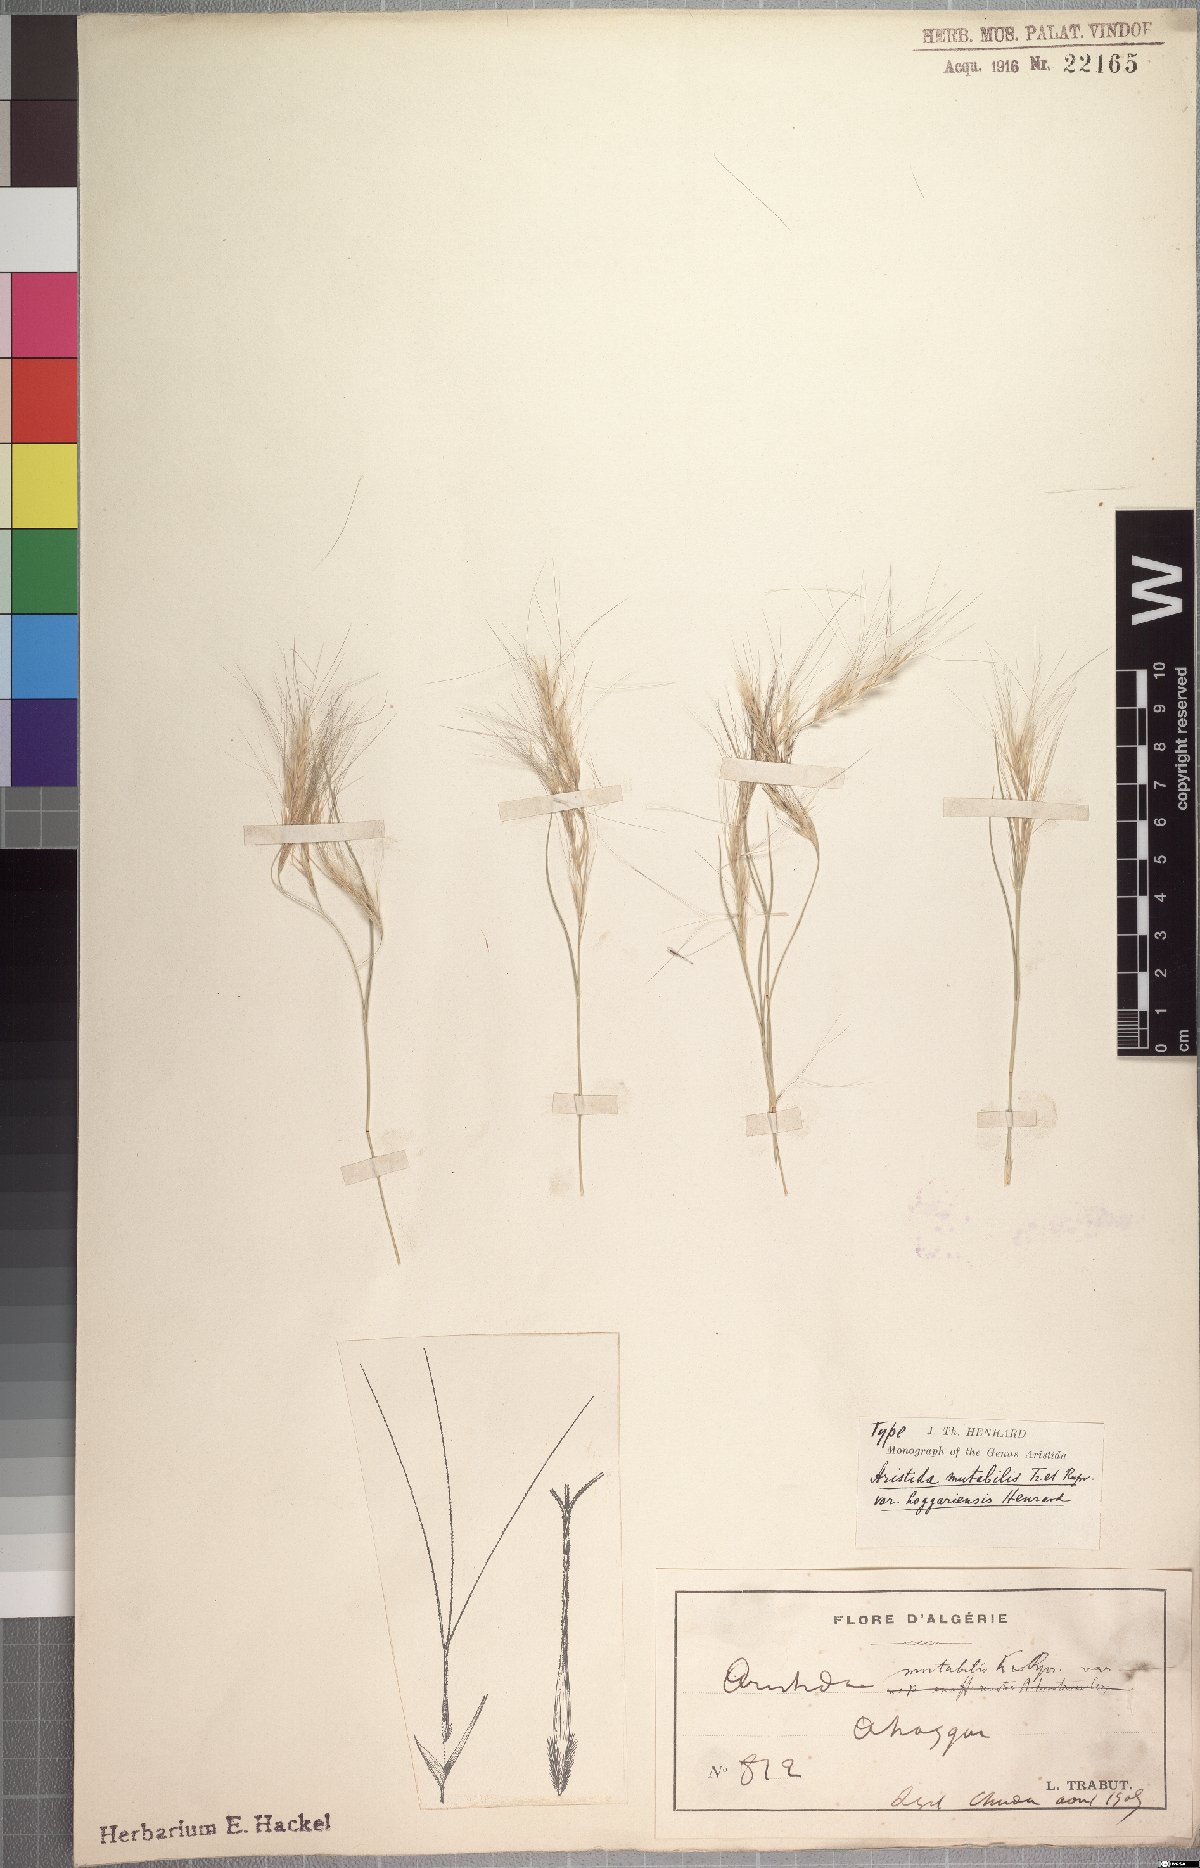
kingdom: Plantae
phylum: Tracheophyta
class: Liliopsida
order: Poales
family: Poaceae
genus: Aristida
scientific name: Aristida mutabilis
